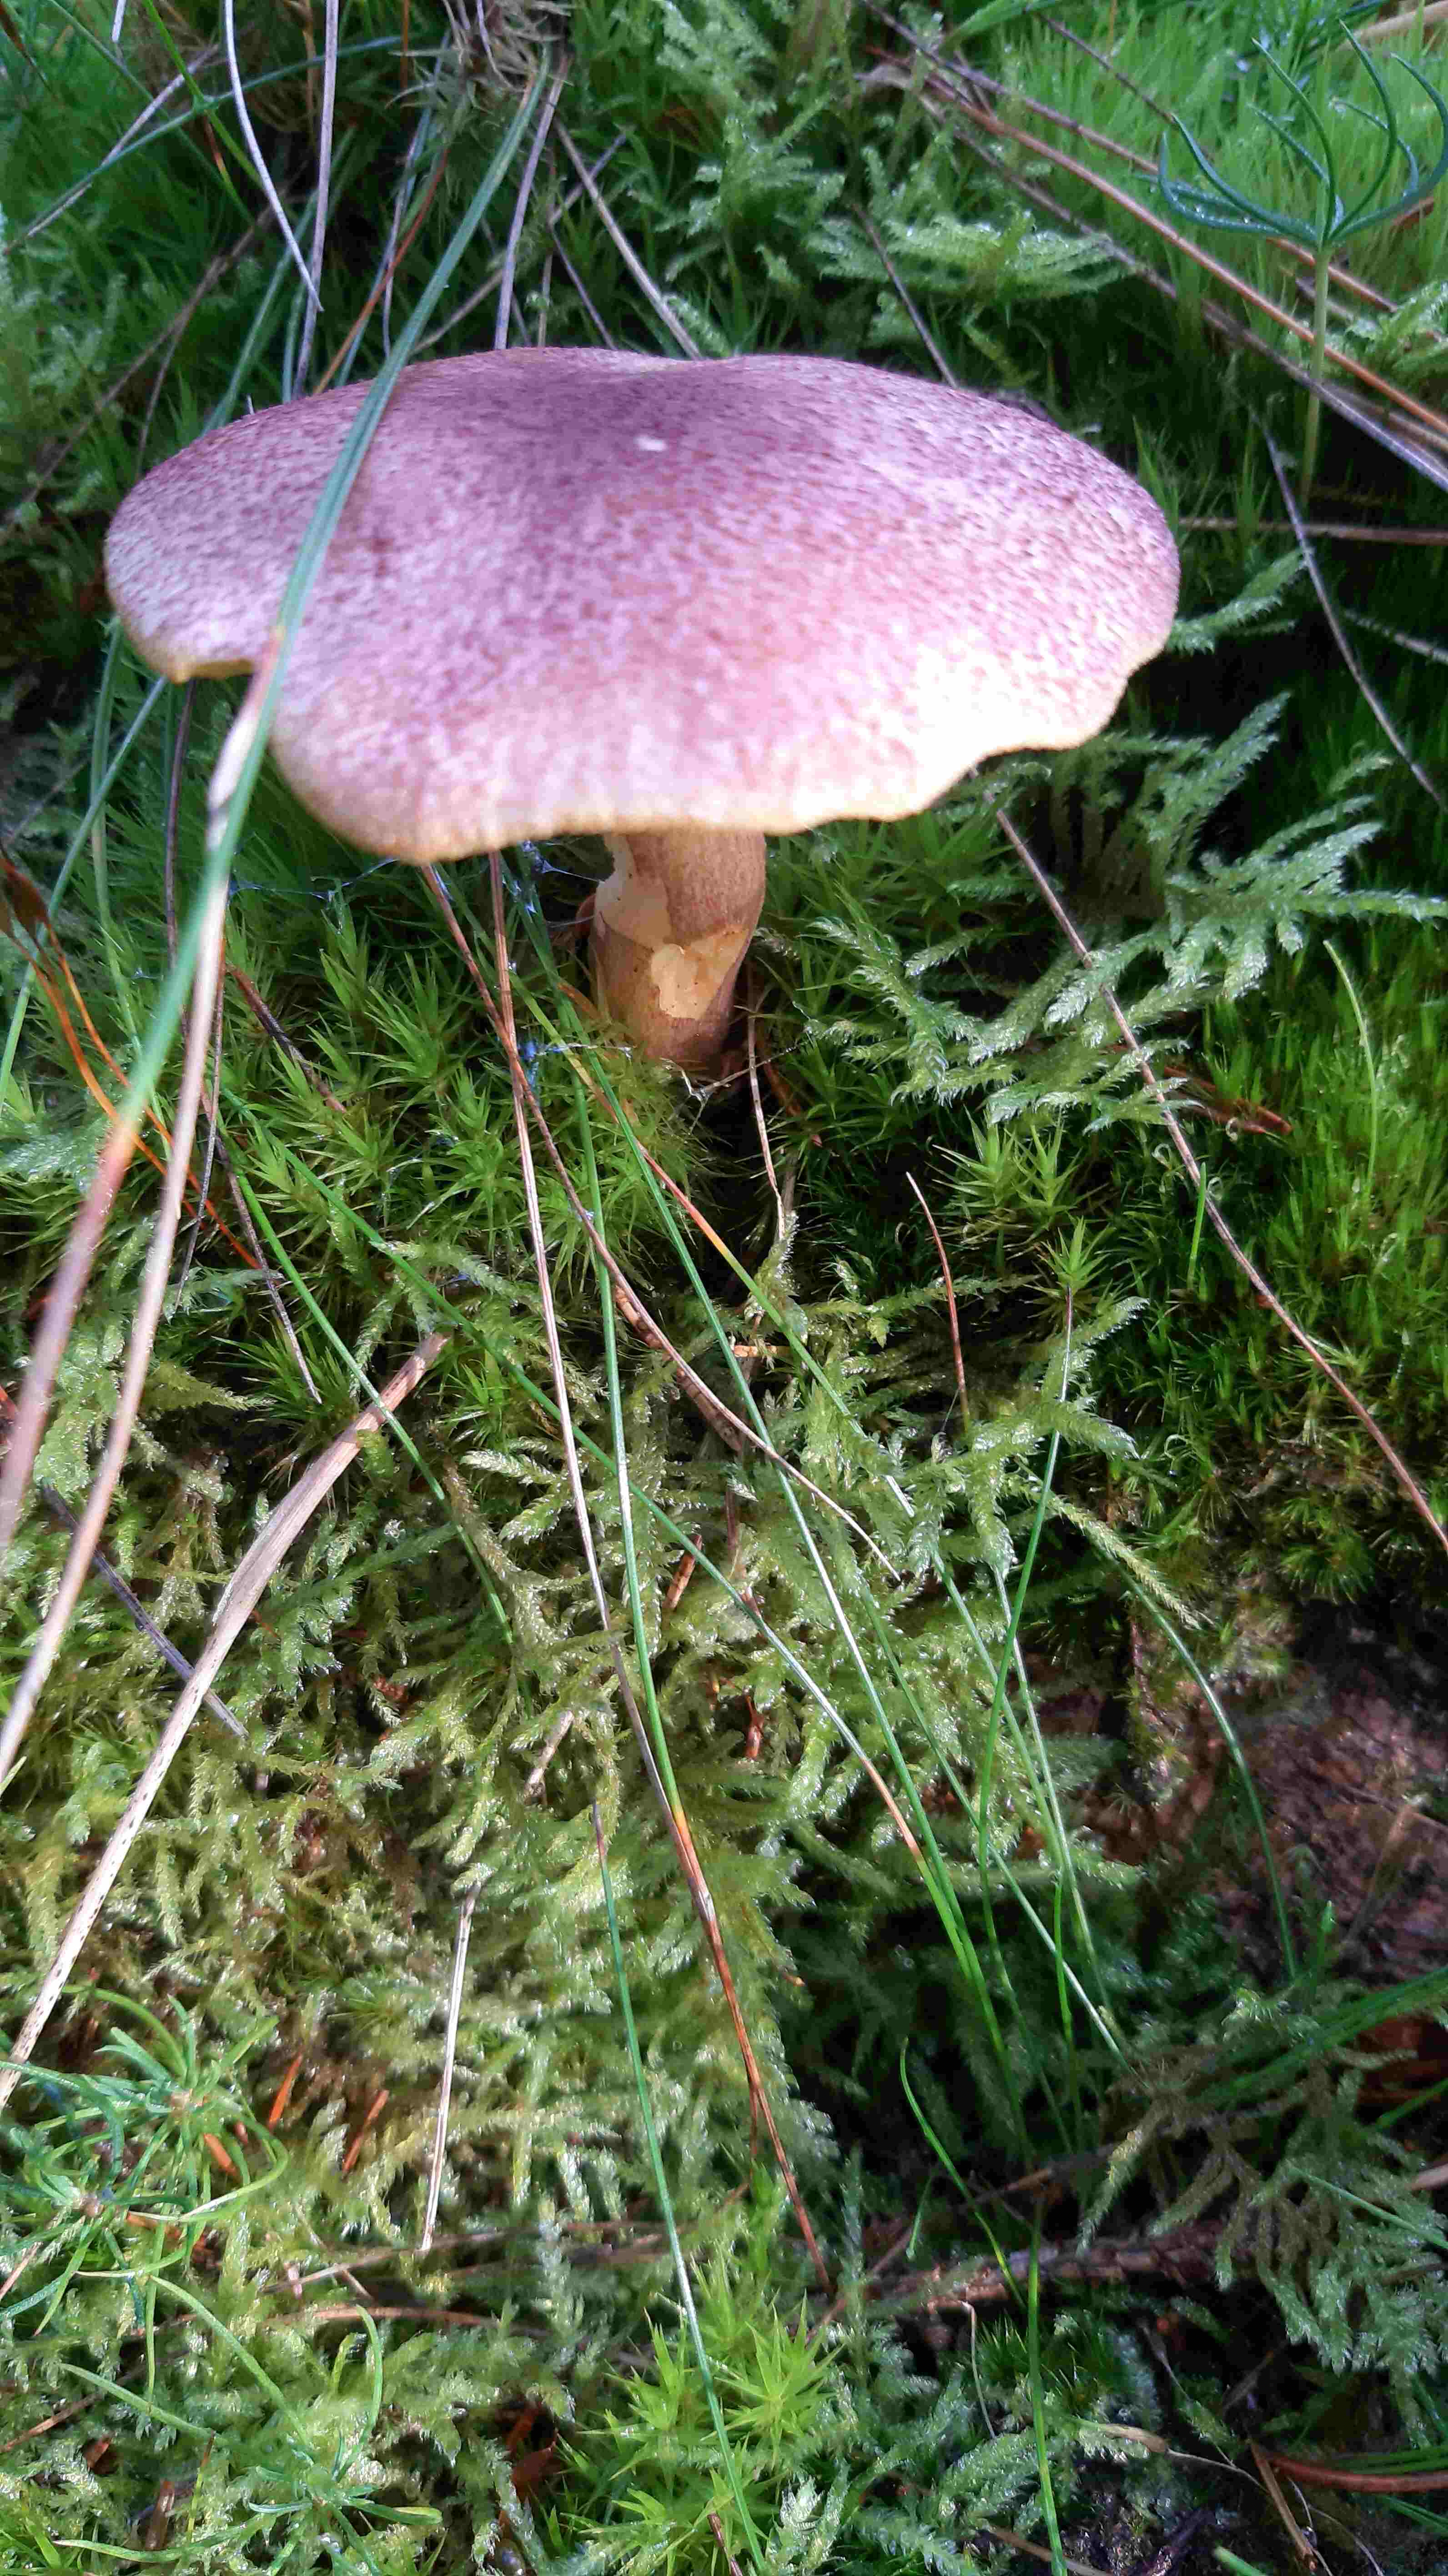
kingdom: Fungi
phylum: Basidiomycota
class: Agaricomycetes
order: Agaricales
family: Tricholomataceae
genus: Tricholomopsis
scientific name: Tricholomopsis rutilans
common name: purpur-væbnerhat
